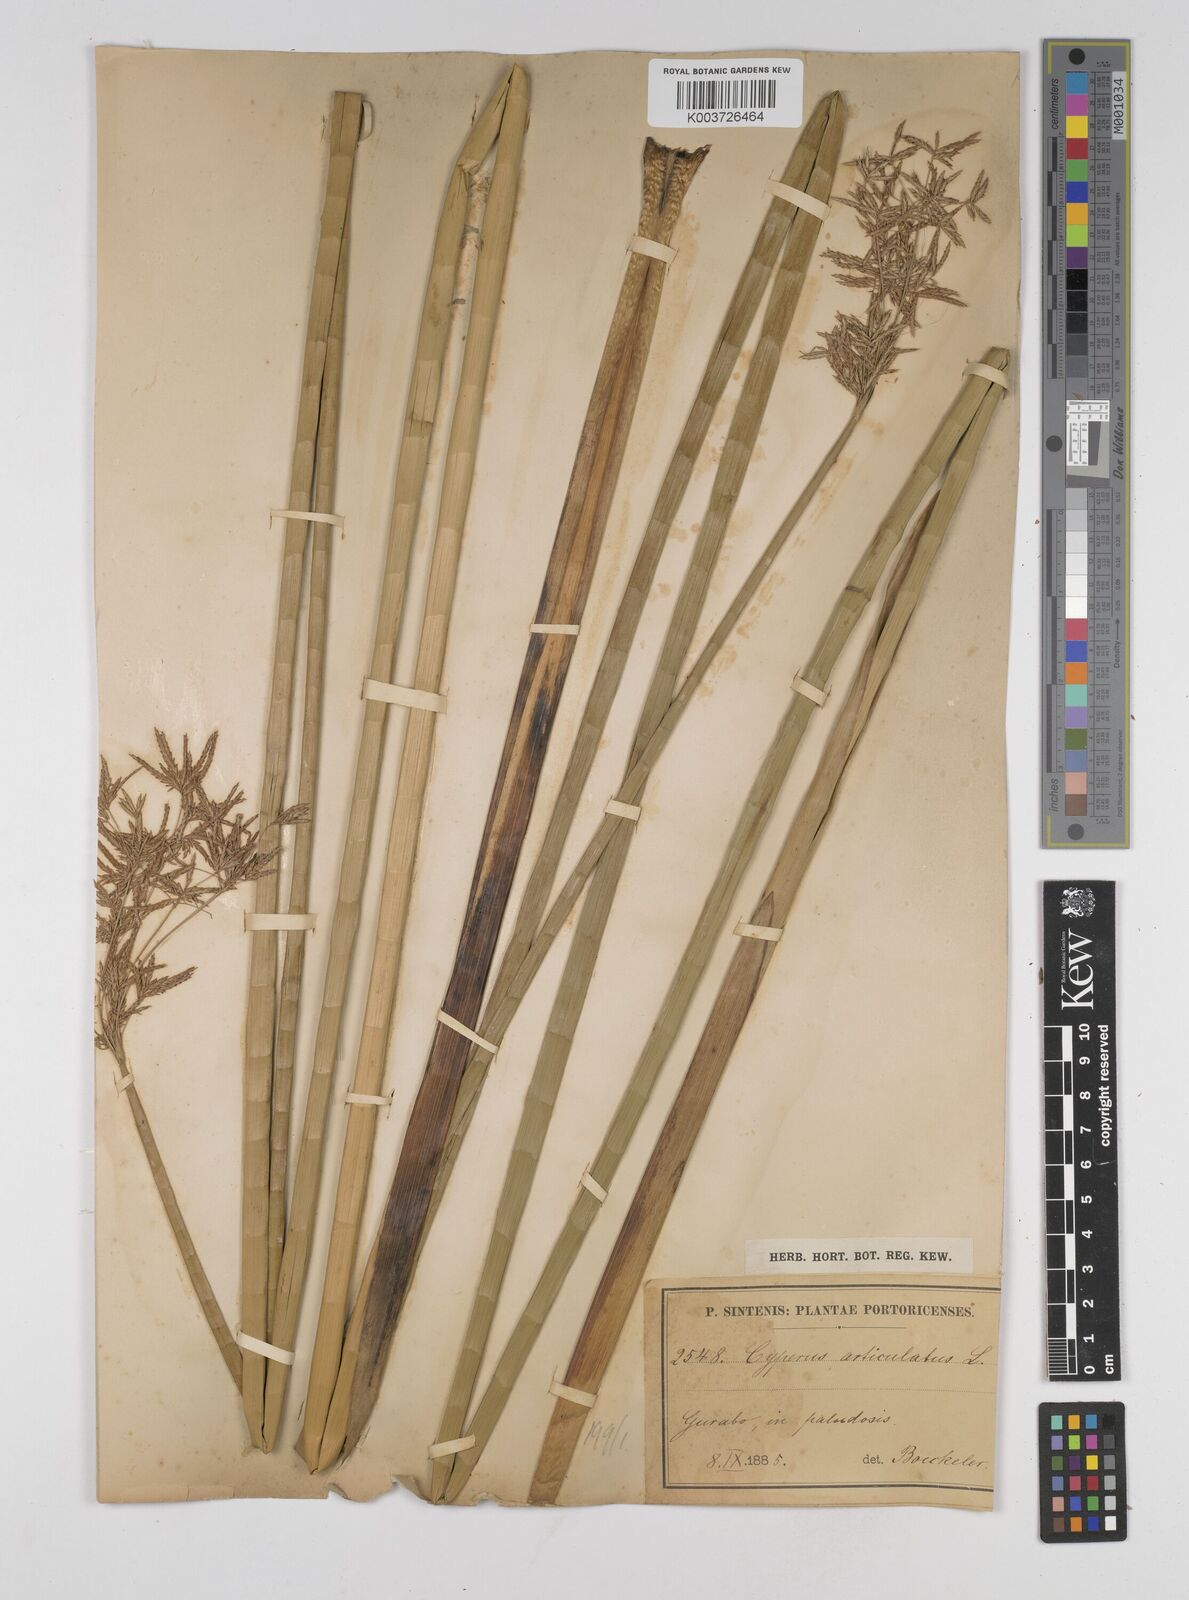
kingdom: Plantae
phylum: Tracheophyta
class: Liliopsida
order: Poales
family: Cyperaceae
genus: Cyperus
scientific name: Cyperus articulatus
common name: Jointed flatsedge
